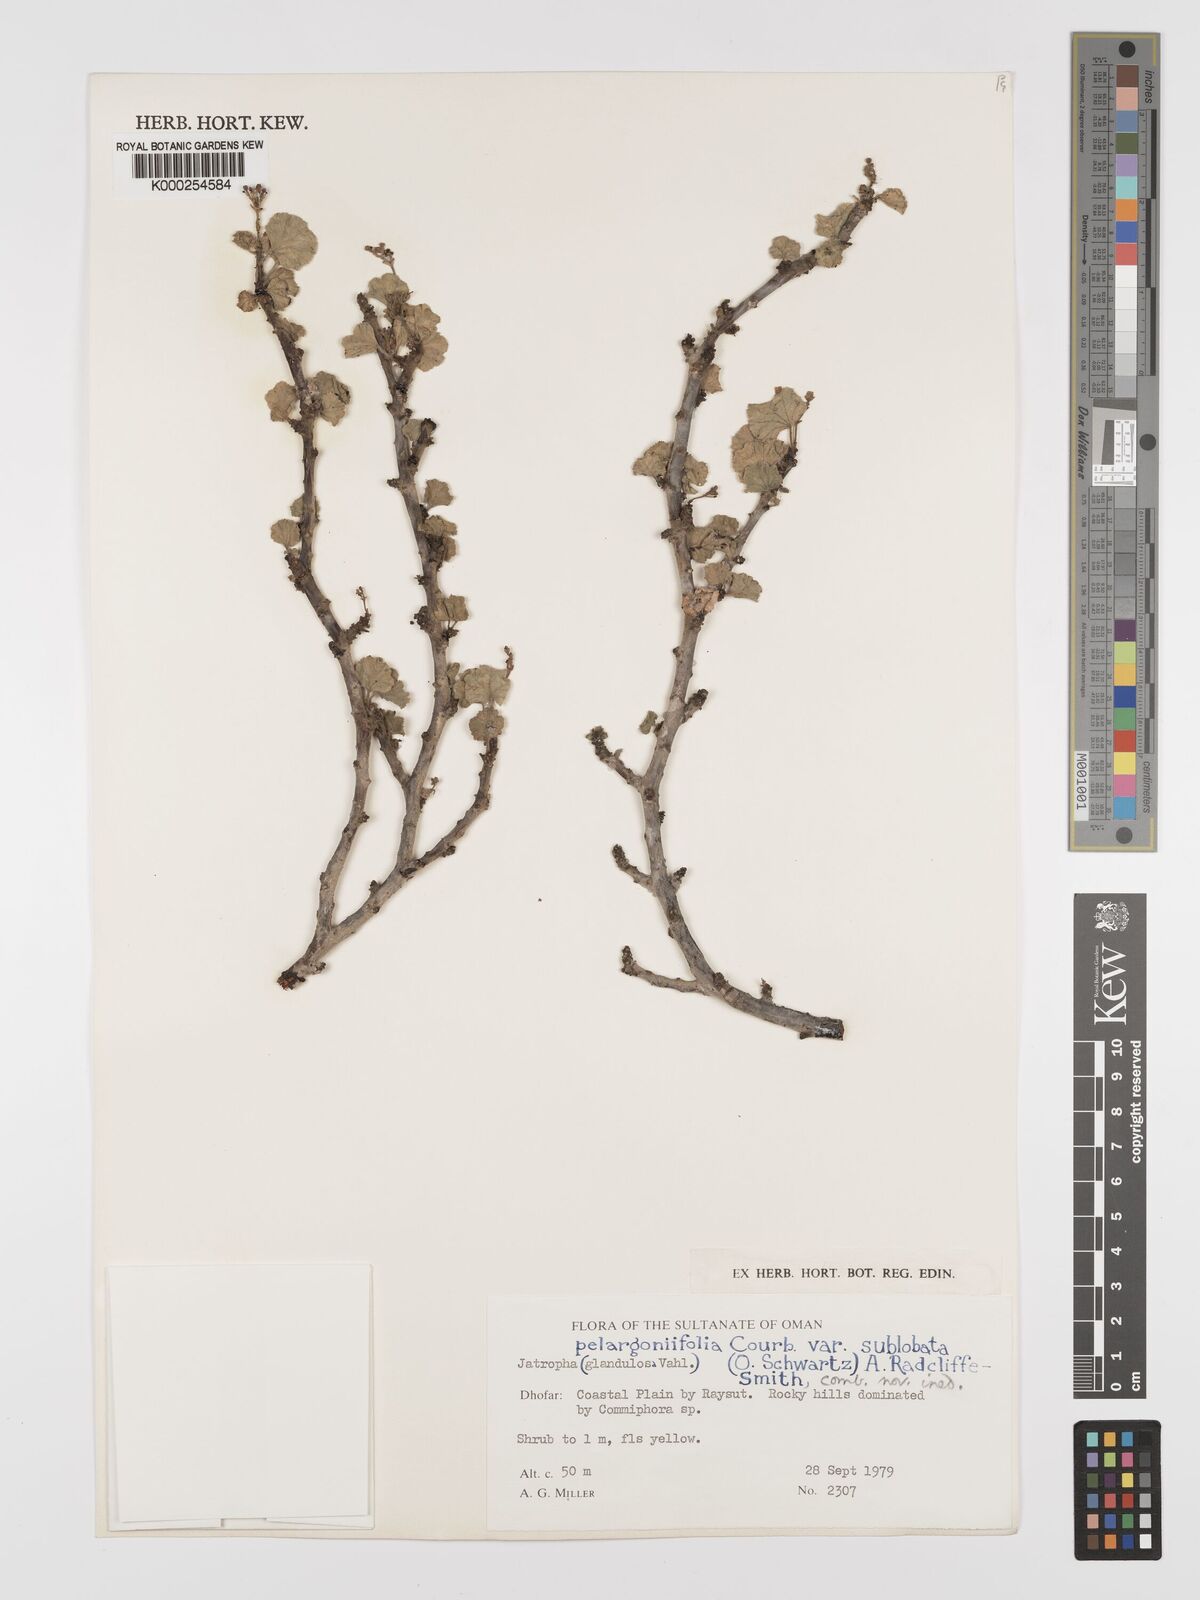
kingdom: Plantae
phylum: Tracheophyta
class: Magnoliopsida
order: Malpighiales
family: Euphorbiaceae
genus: Jatropha
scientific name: Jatropha pelargoniifolia
